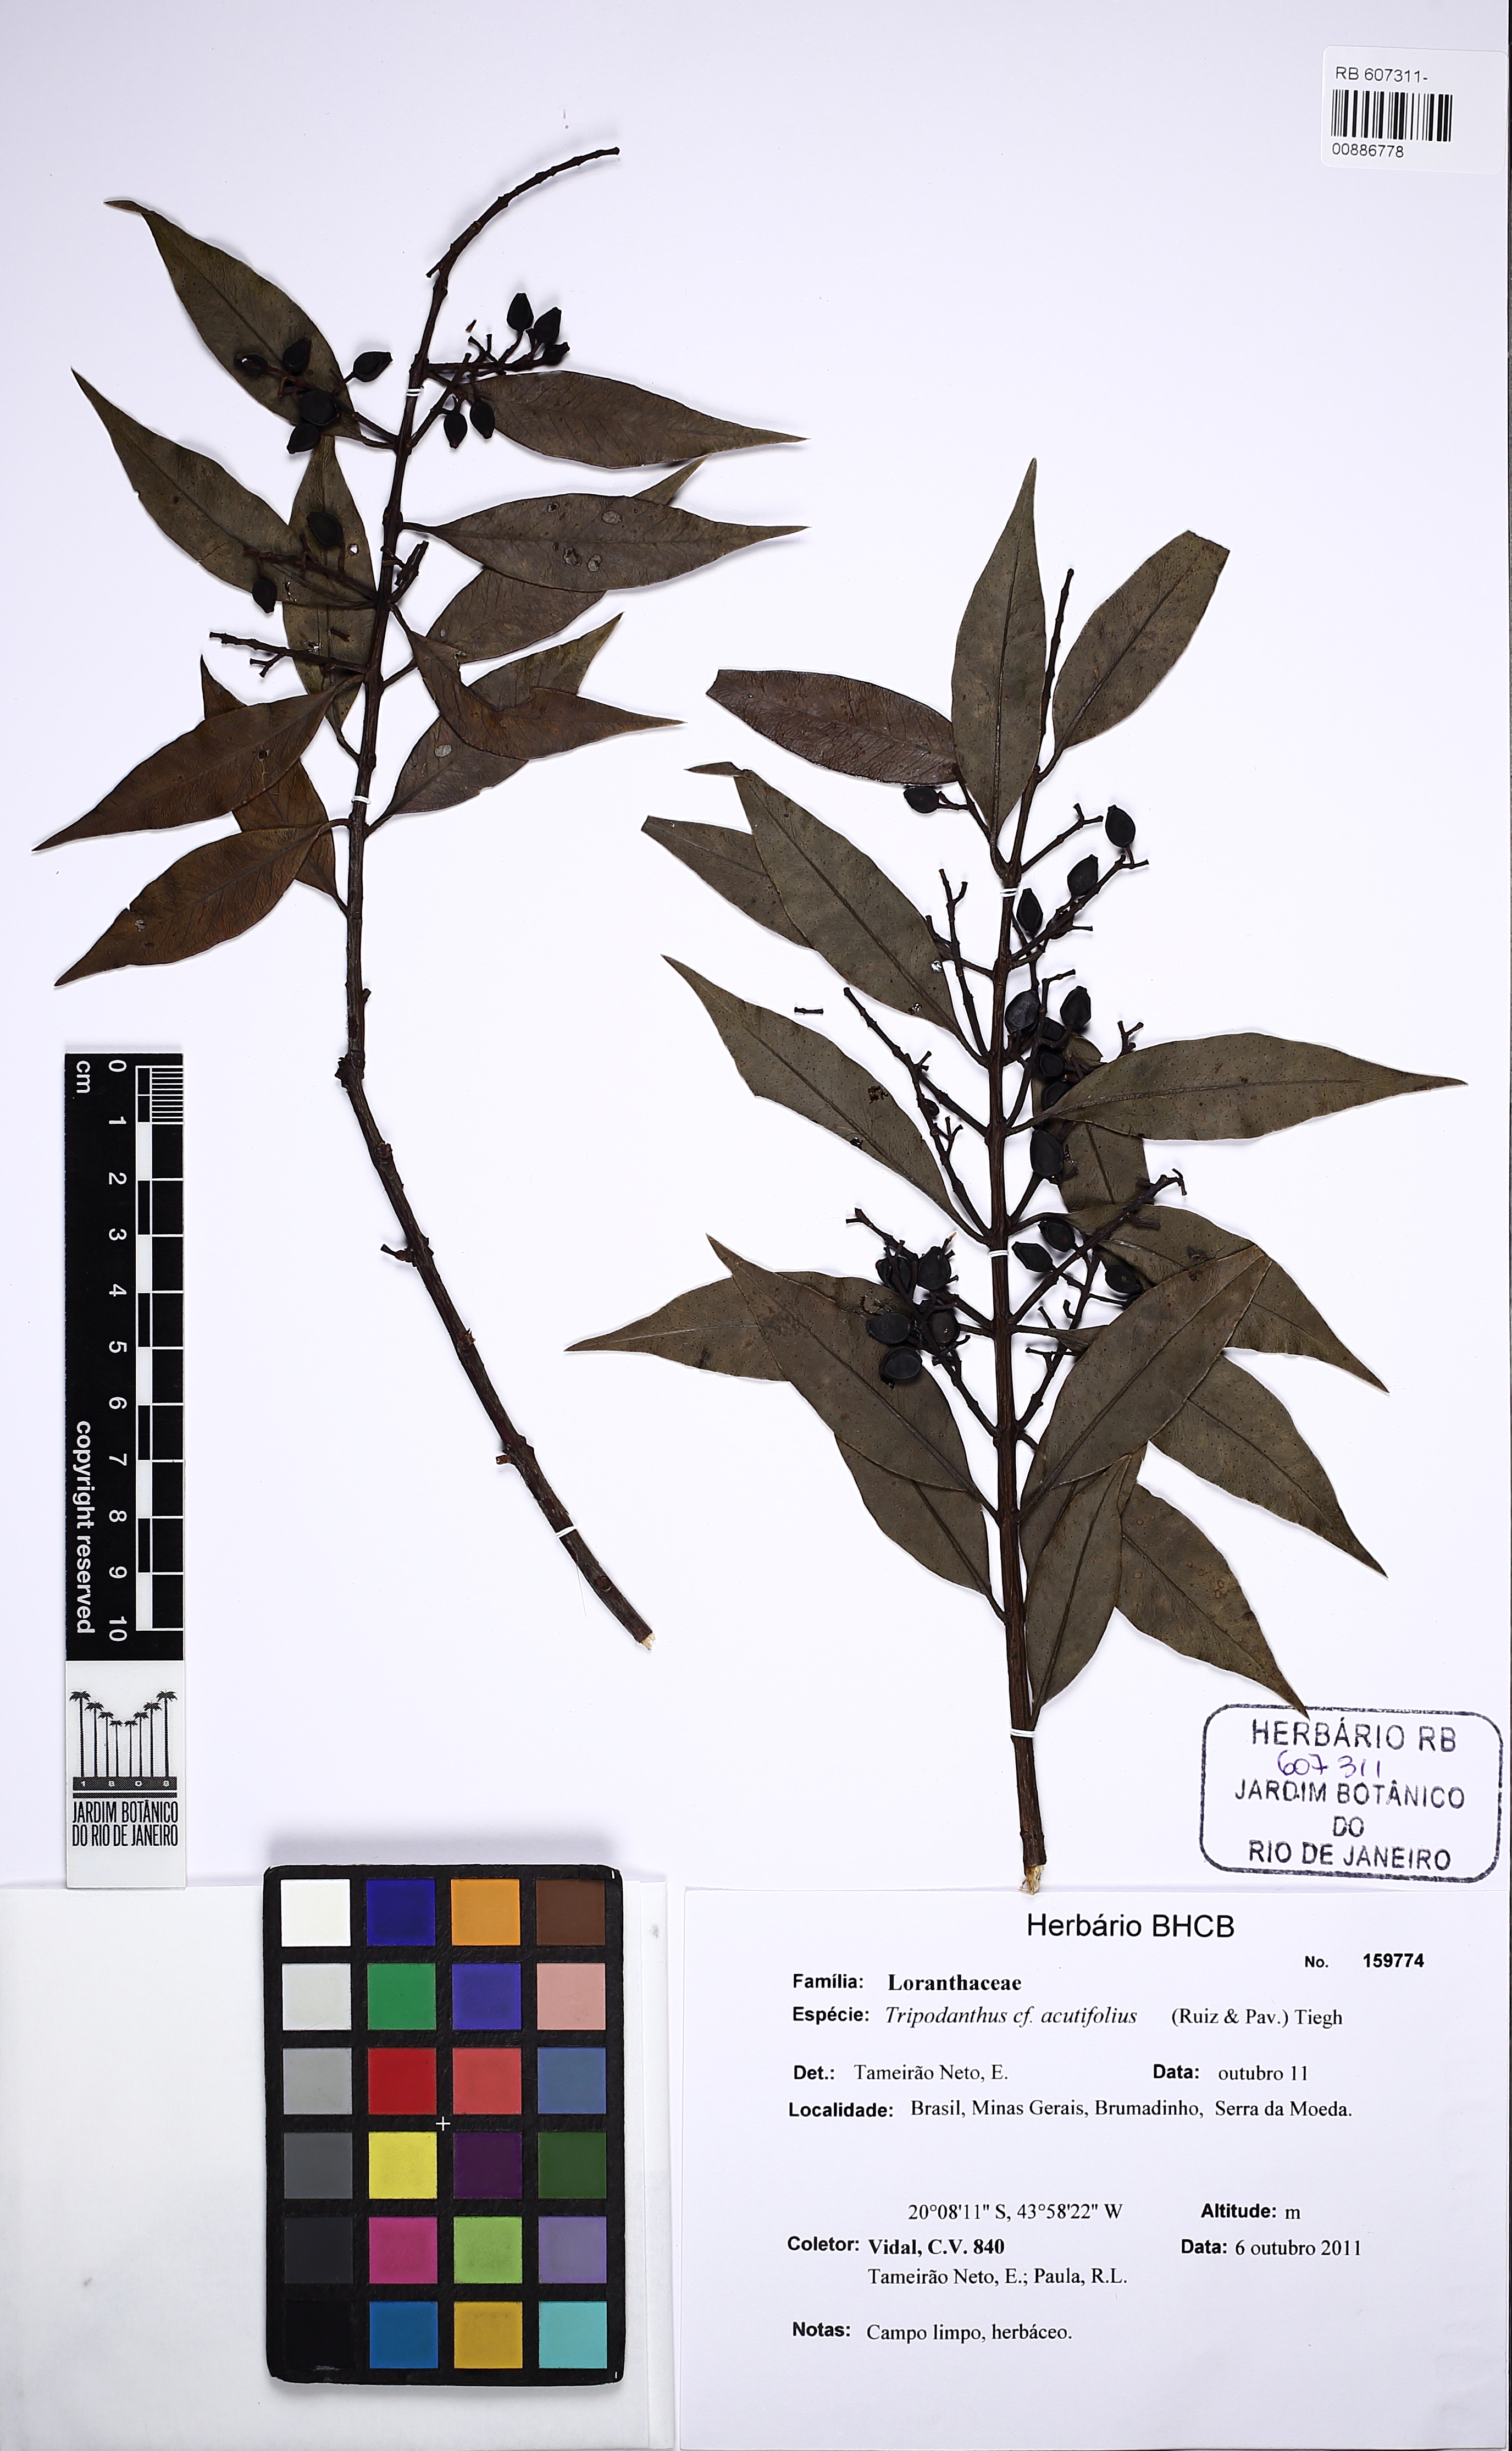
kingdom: Plantae
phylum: Tracheophyta
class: Magnoliopsida
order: Santalales
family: Loranthaceae
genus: Tripodanthus
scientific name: Tripodanthus acutifolius
